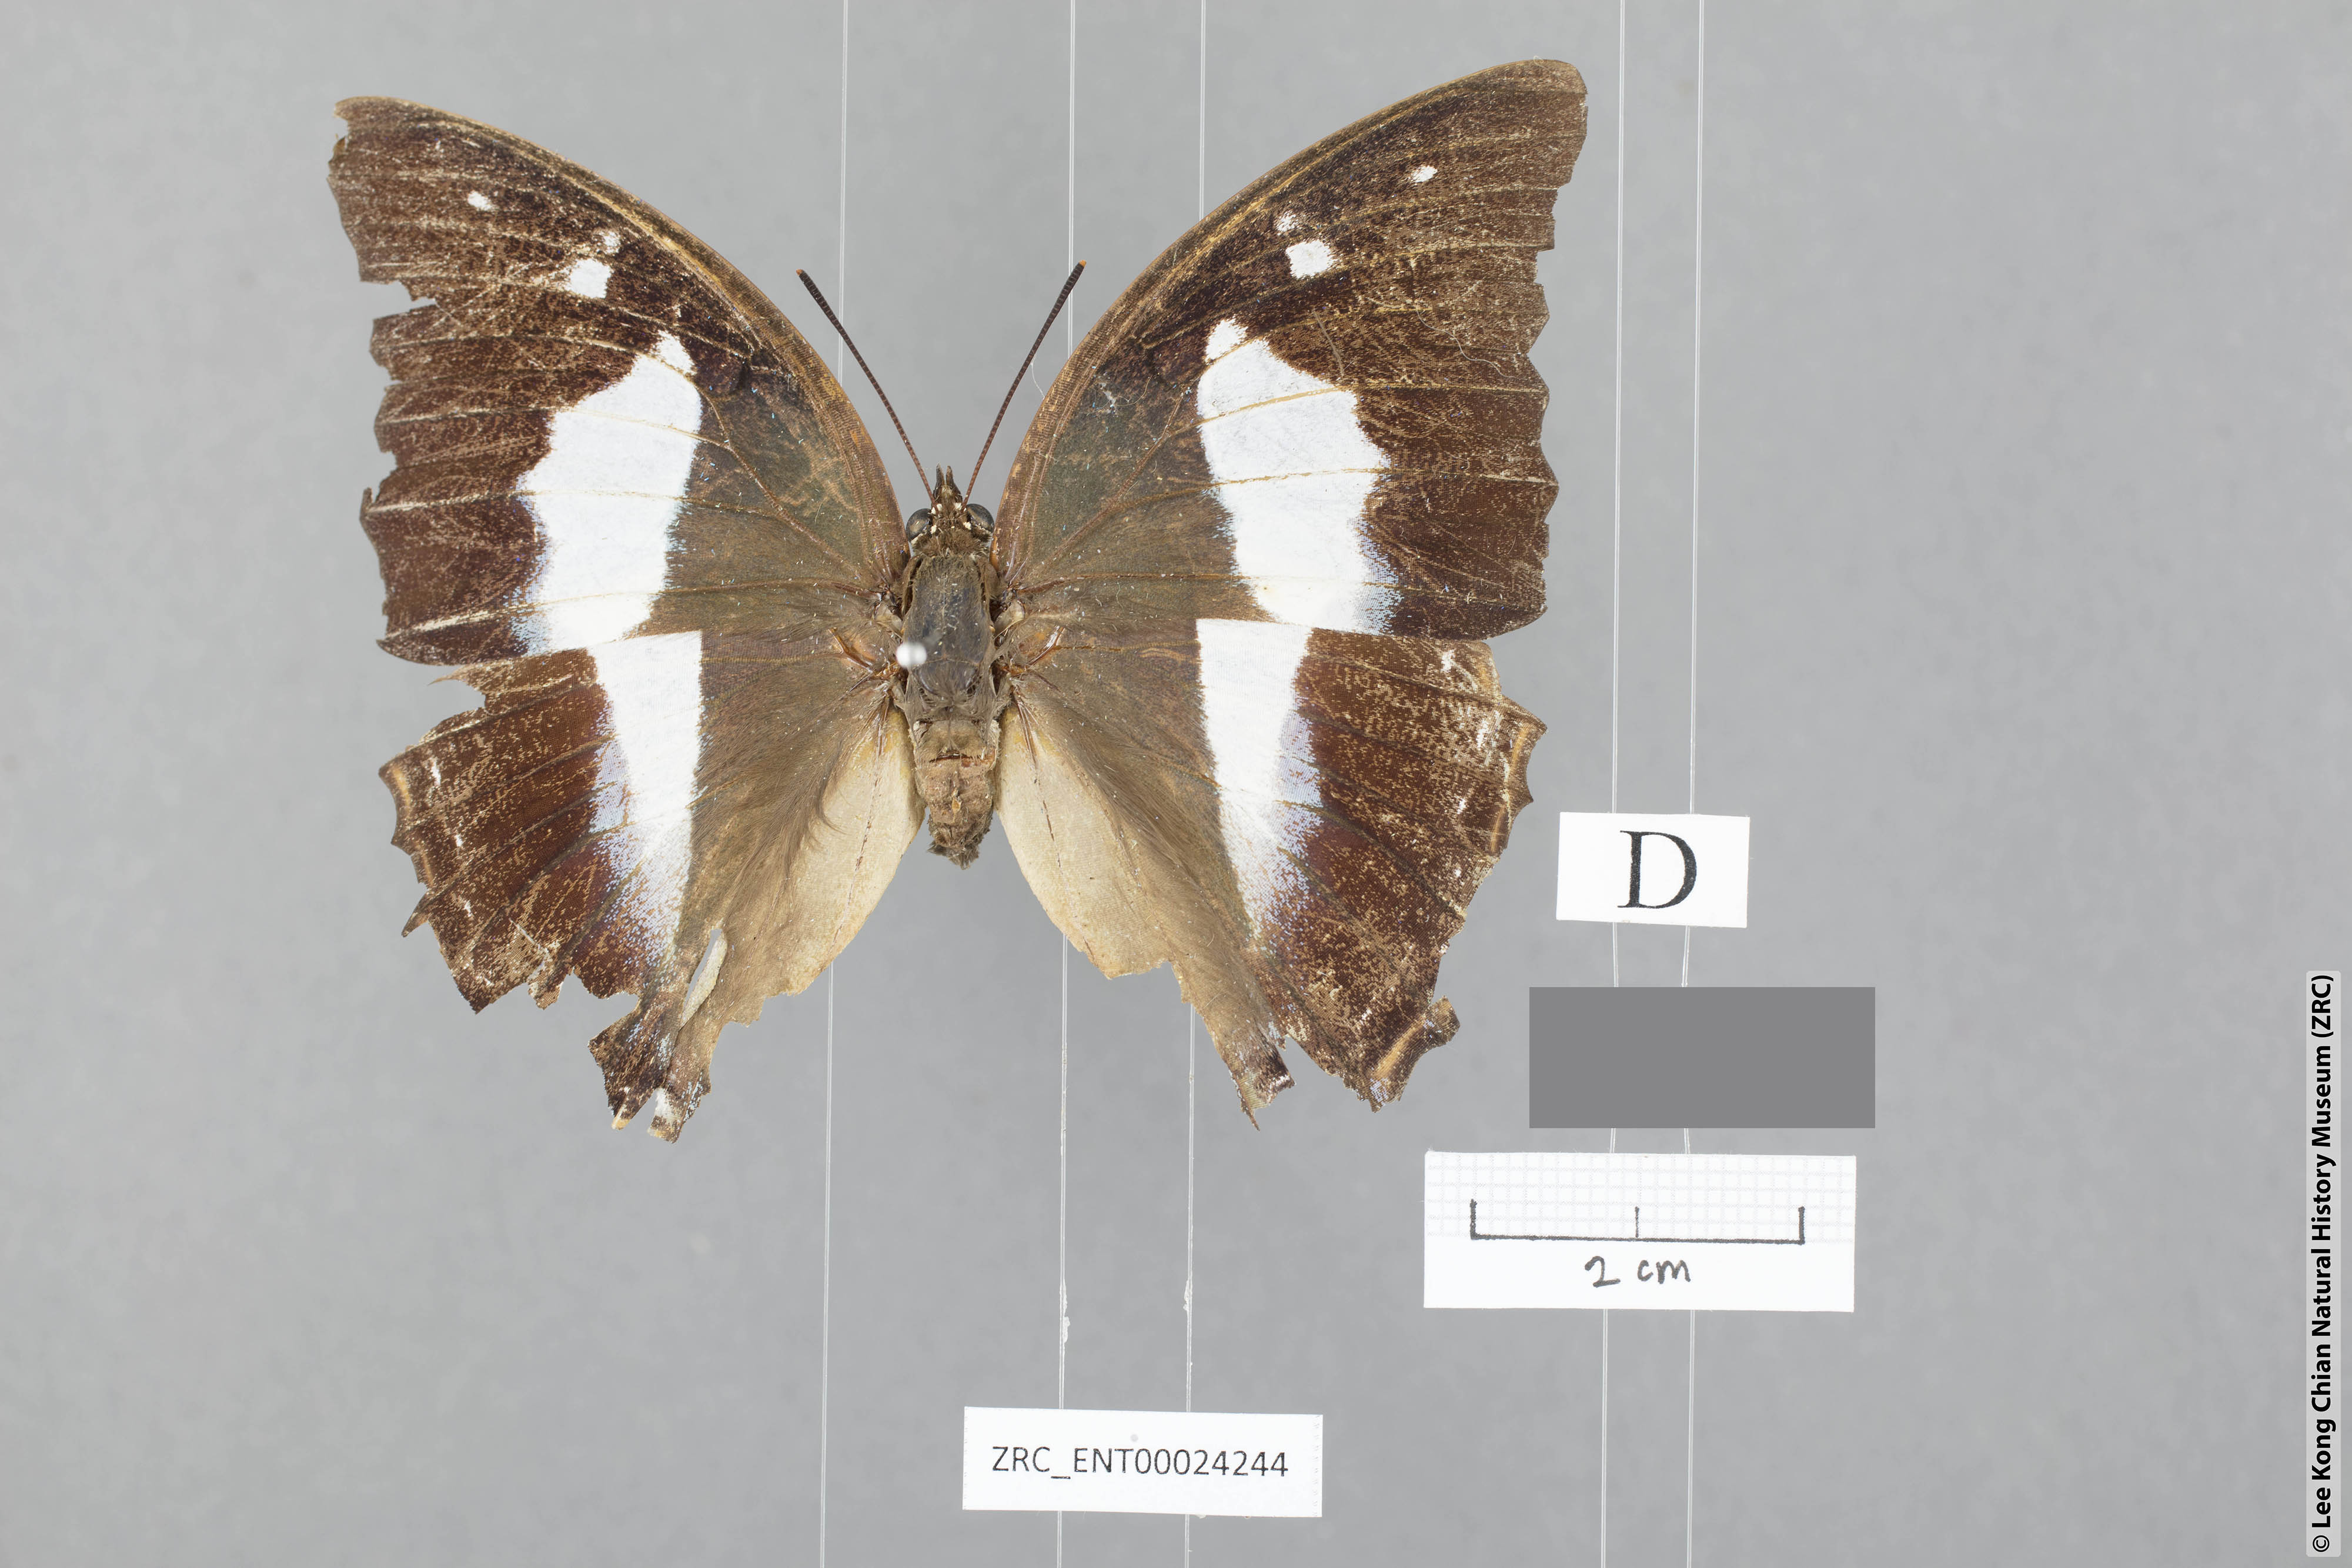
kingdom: Animalia
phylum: Arthropoda
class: Insecta
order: Lepidoptera
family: Nymphalidae
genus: Polyura
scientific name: Polyura schreiberi
